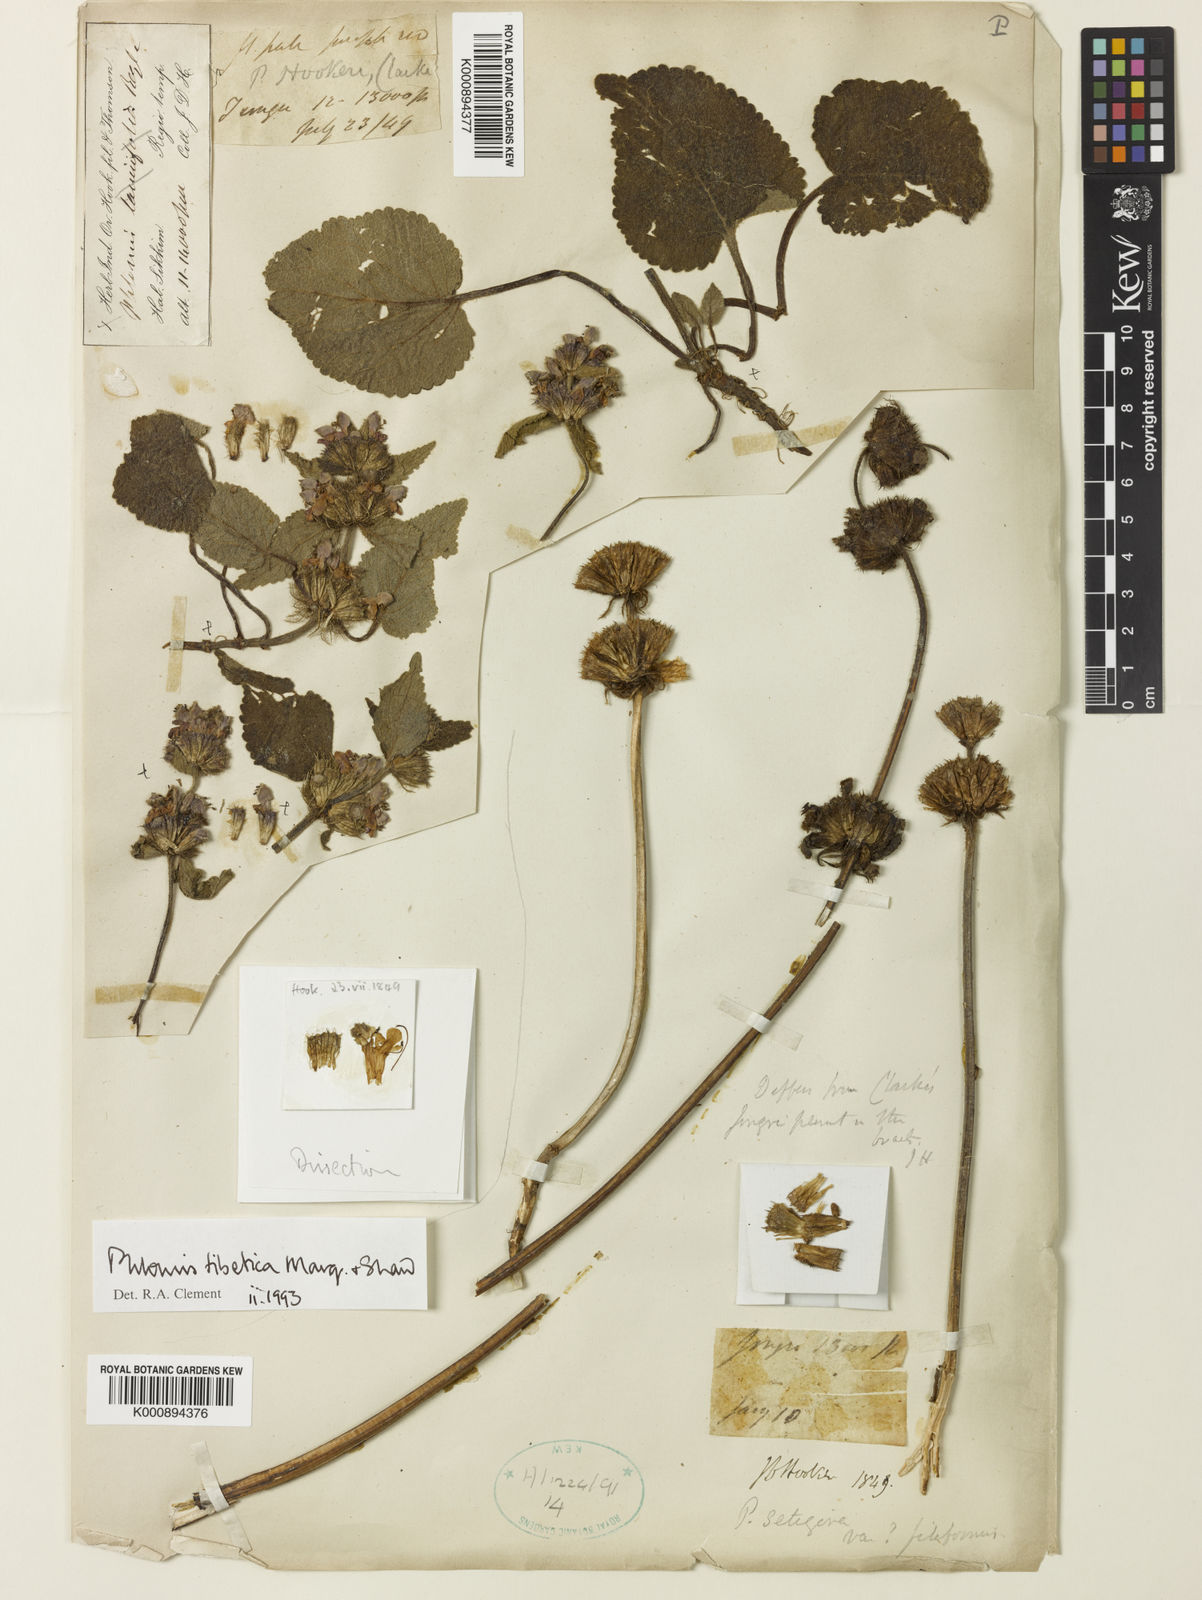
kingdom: Plantae
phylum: Tracheophyta
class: Magnoliopsida
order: Lamiales
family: Lamiaceae
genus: Phlomoides
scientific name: Phlomoides tibetica
